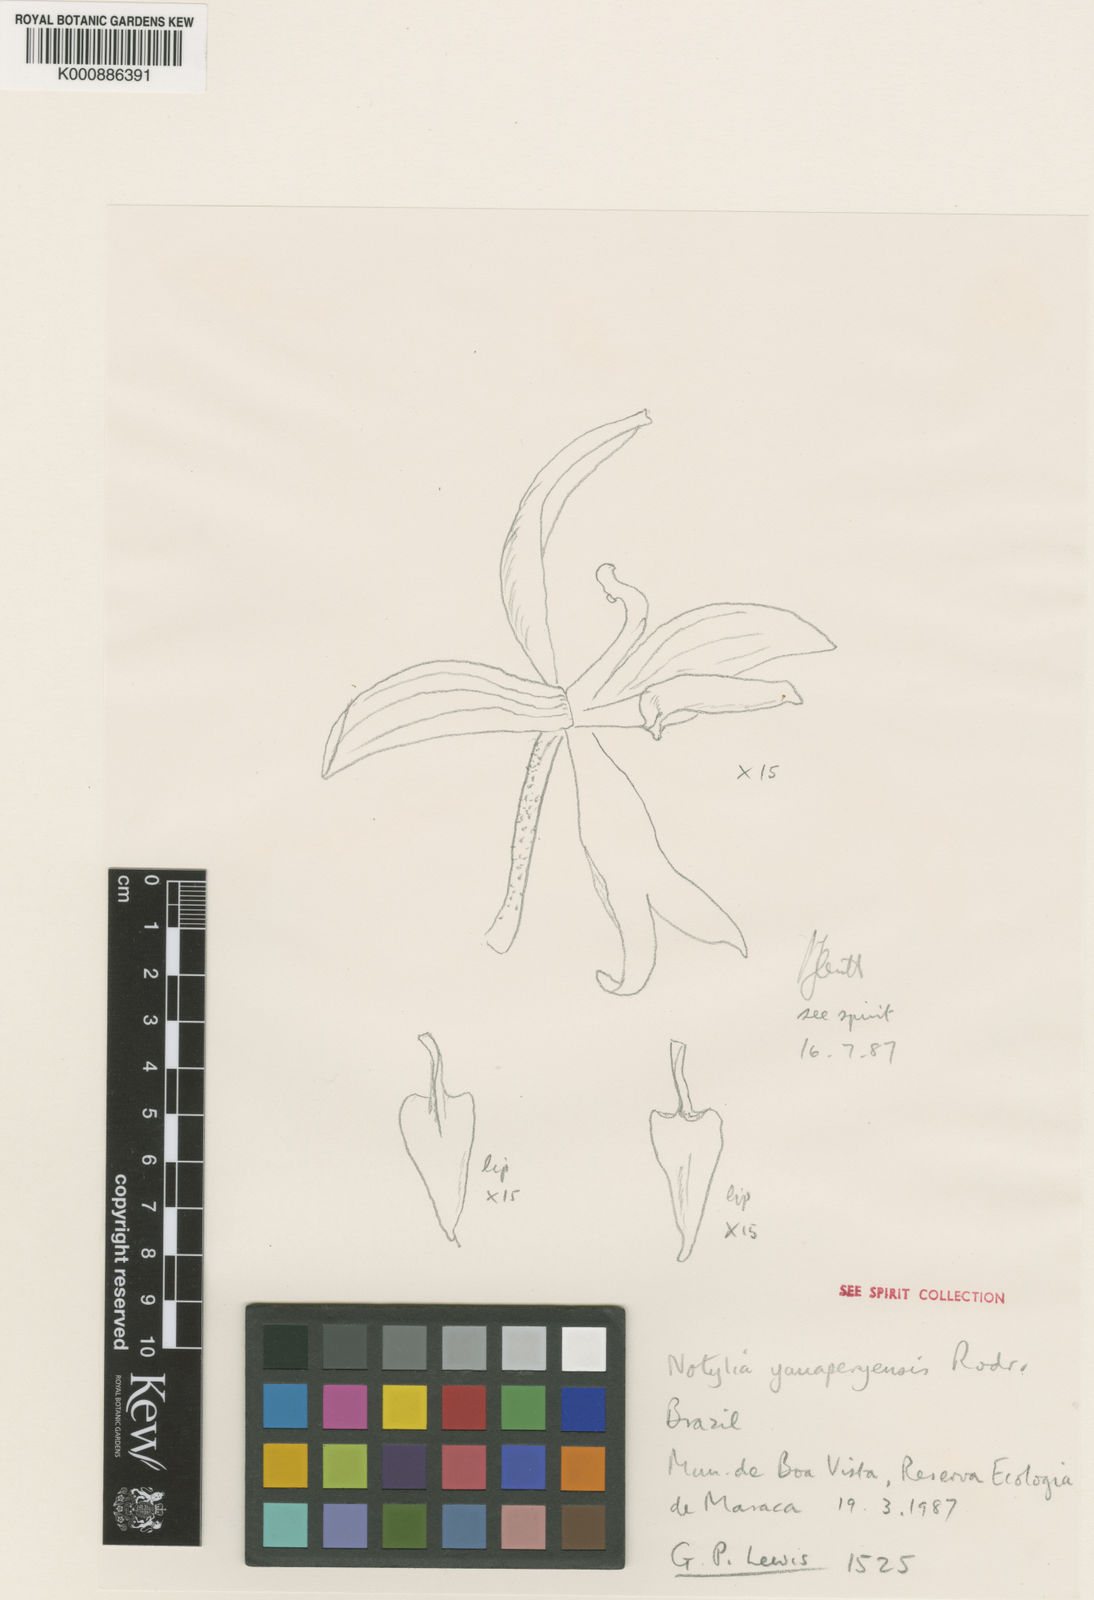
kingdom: Plantae
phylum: Tracheophyta
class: Liliopsida
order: Asparagales
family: Orchidaceae
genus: Notylia
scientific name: Notylia yauaperyensis
